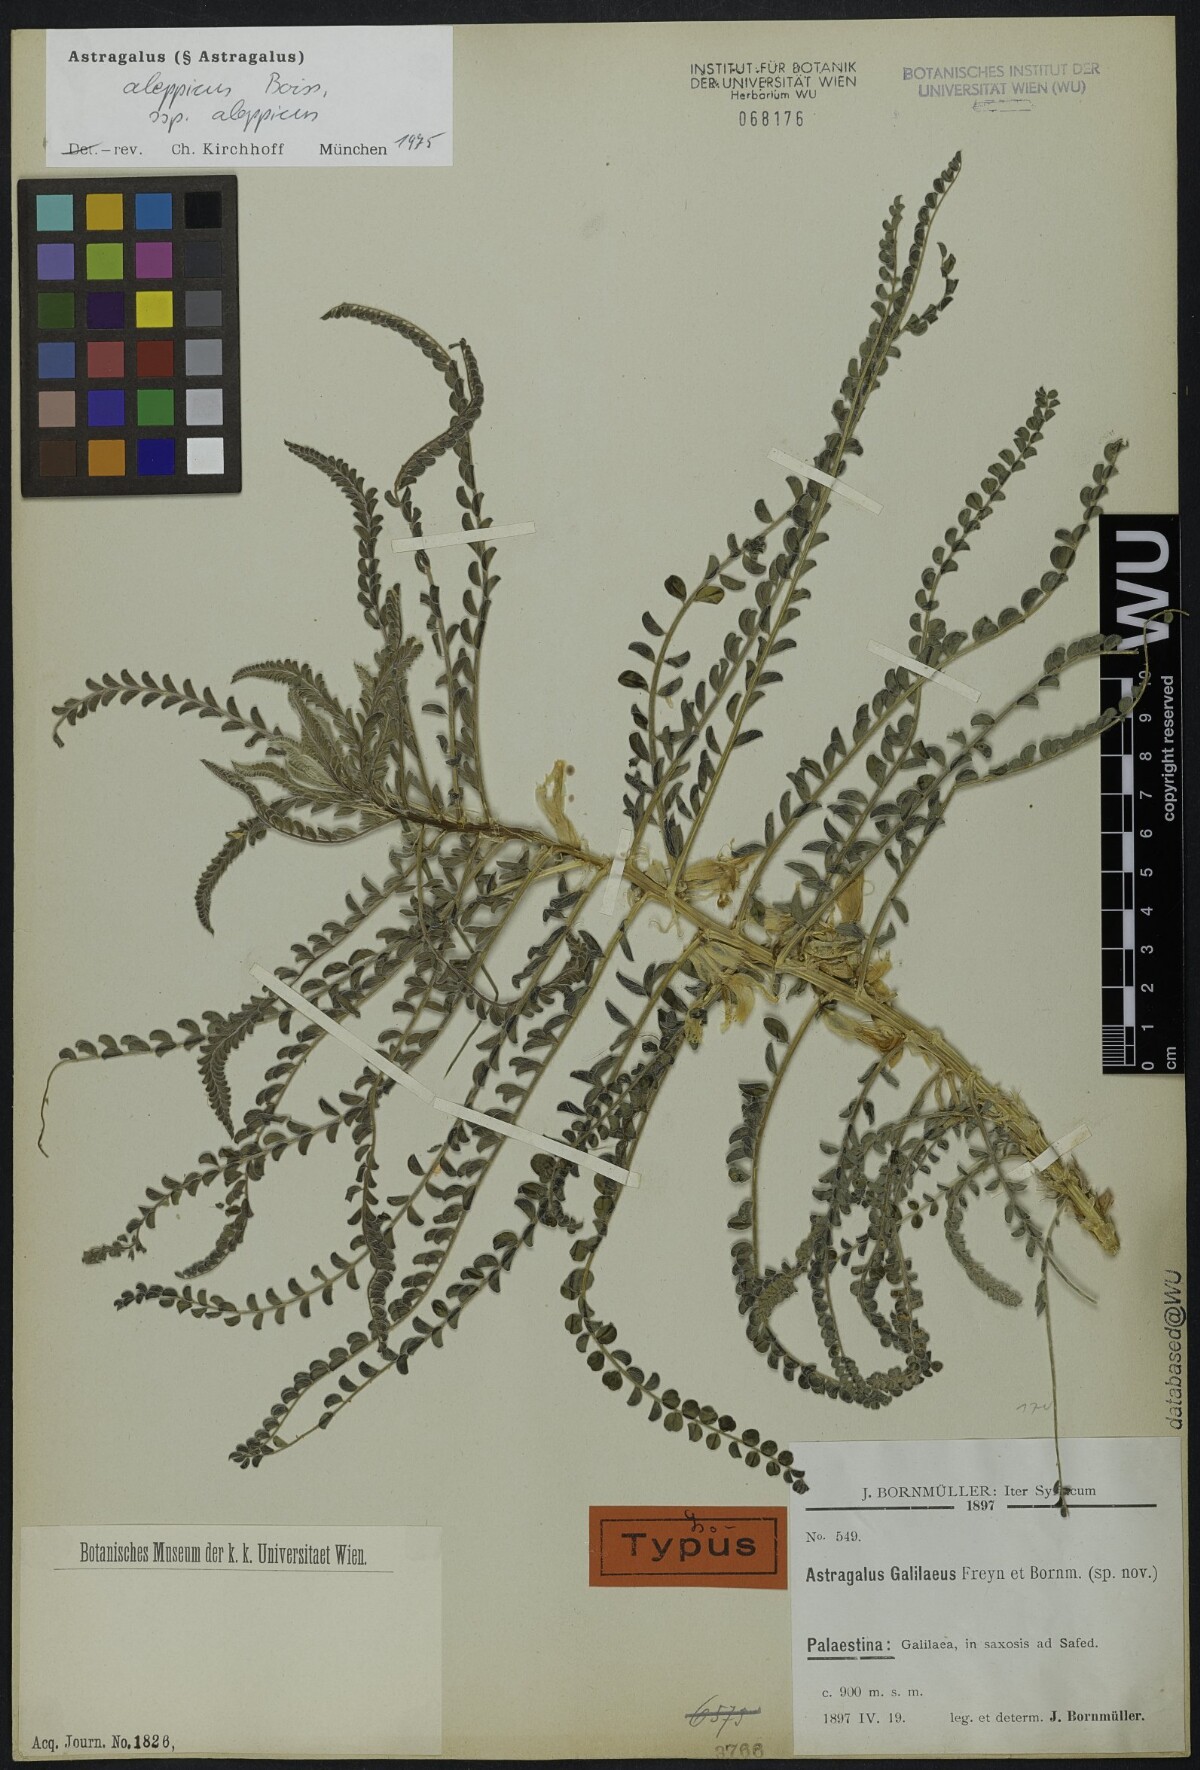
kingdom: Plantae
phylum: Tracheophyta
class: Magnoliopsida
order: Fabales
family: Fabaceae
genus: Astragalus
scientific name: Astragalus aleppicus
